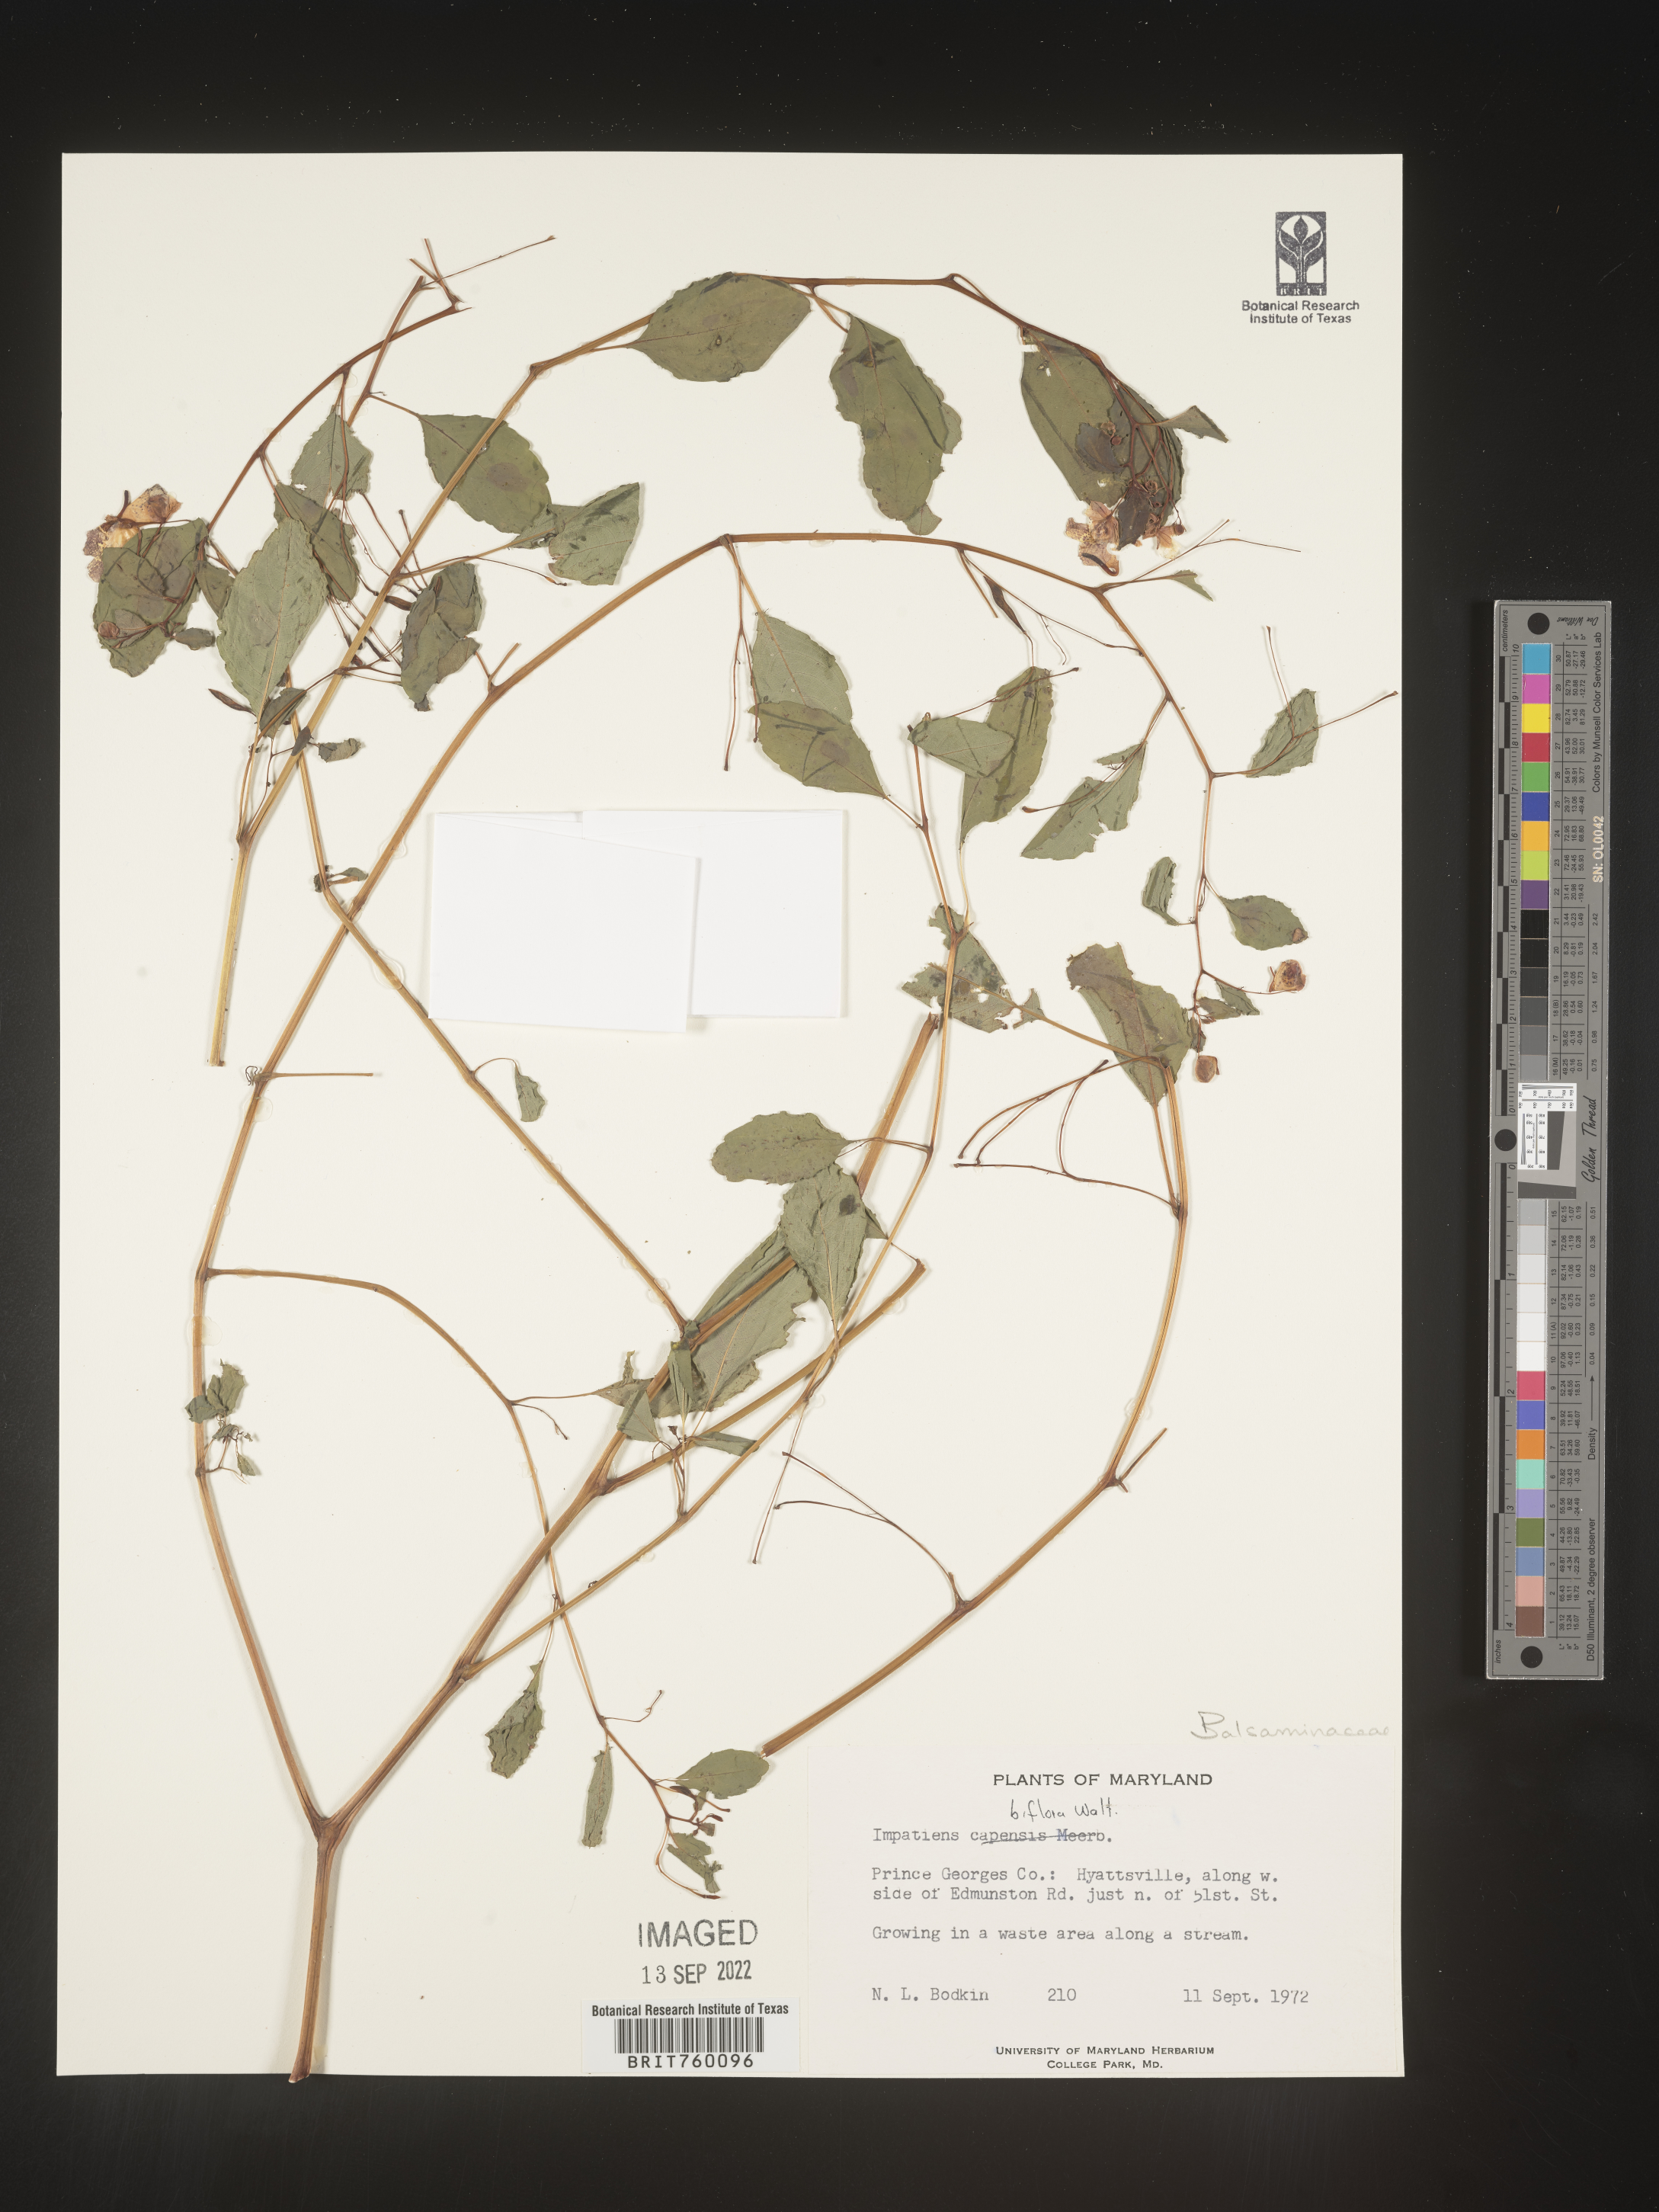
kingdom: Plantae
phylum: Tracheophyta
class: Magnoliopsida
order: Ericales
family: Balsaminaceae
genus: Impatiens
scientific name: Impatiens
